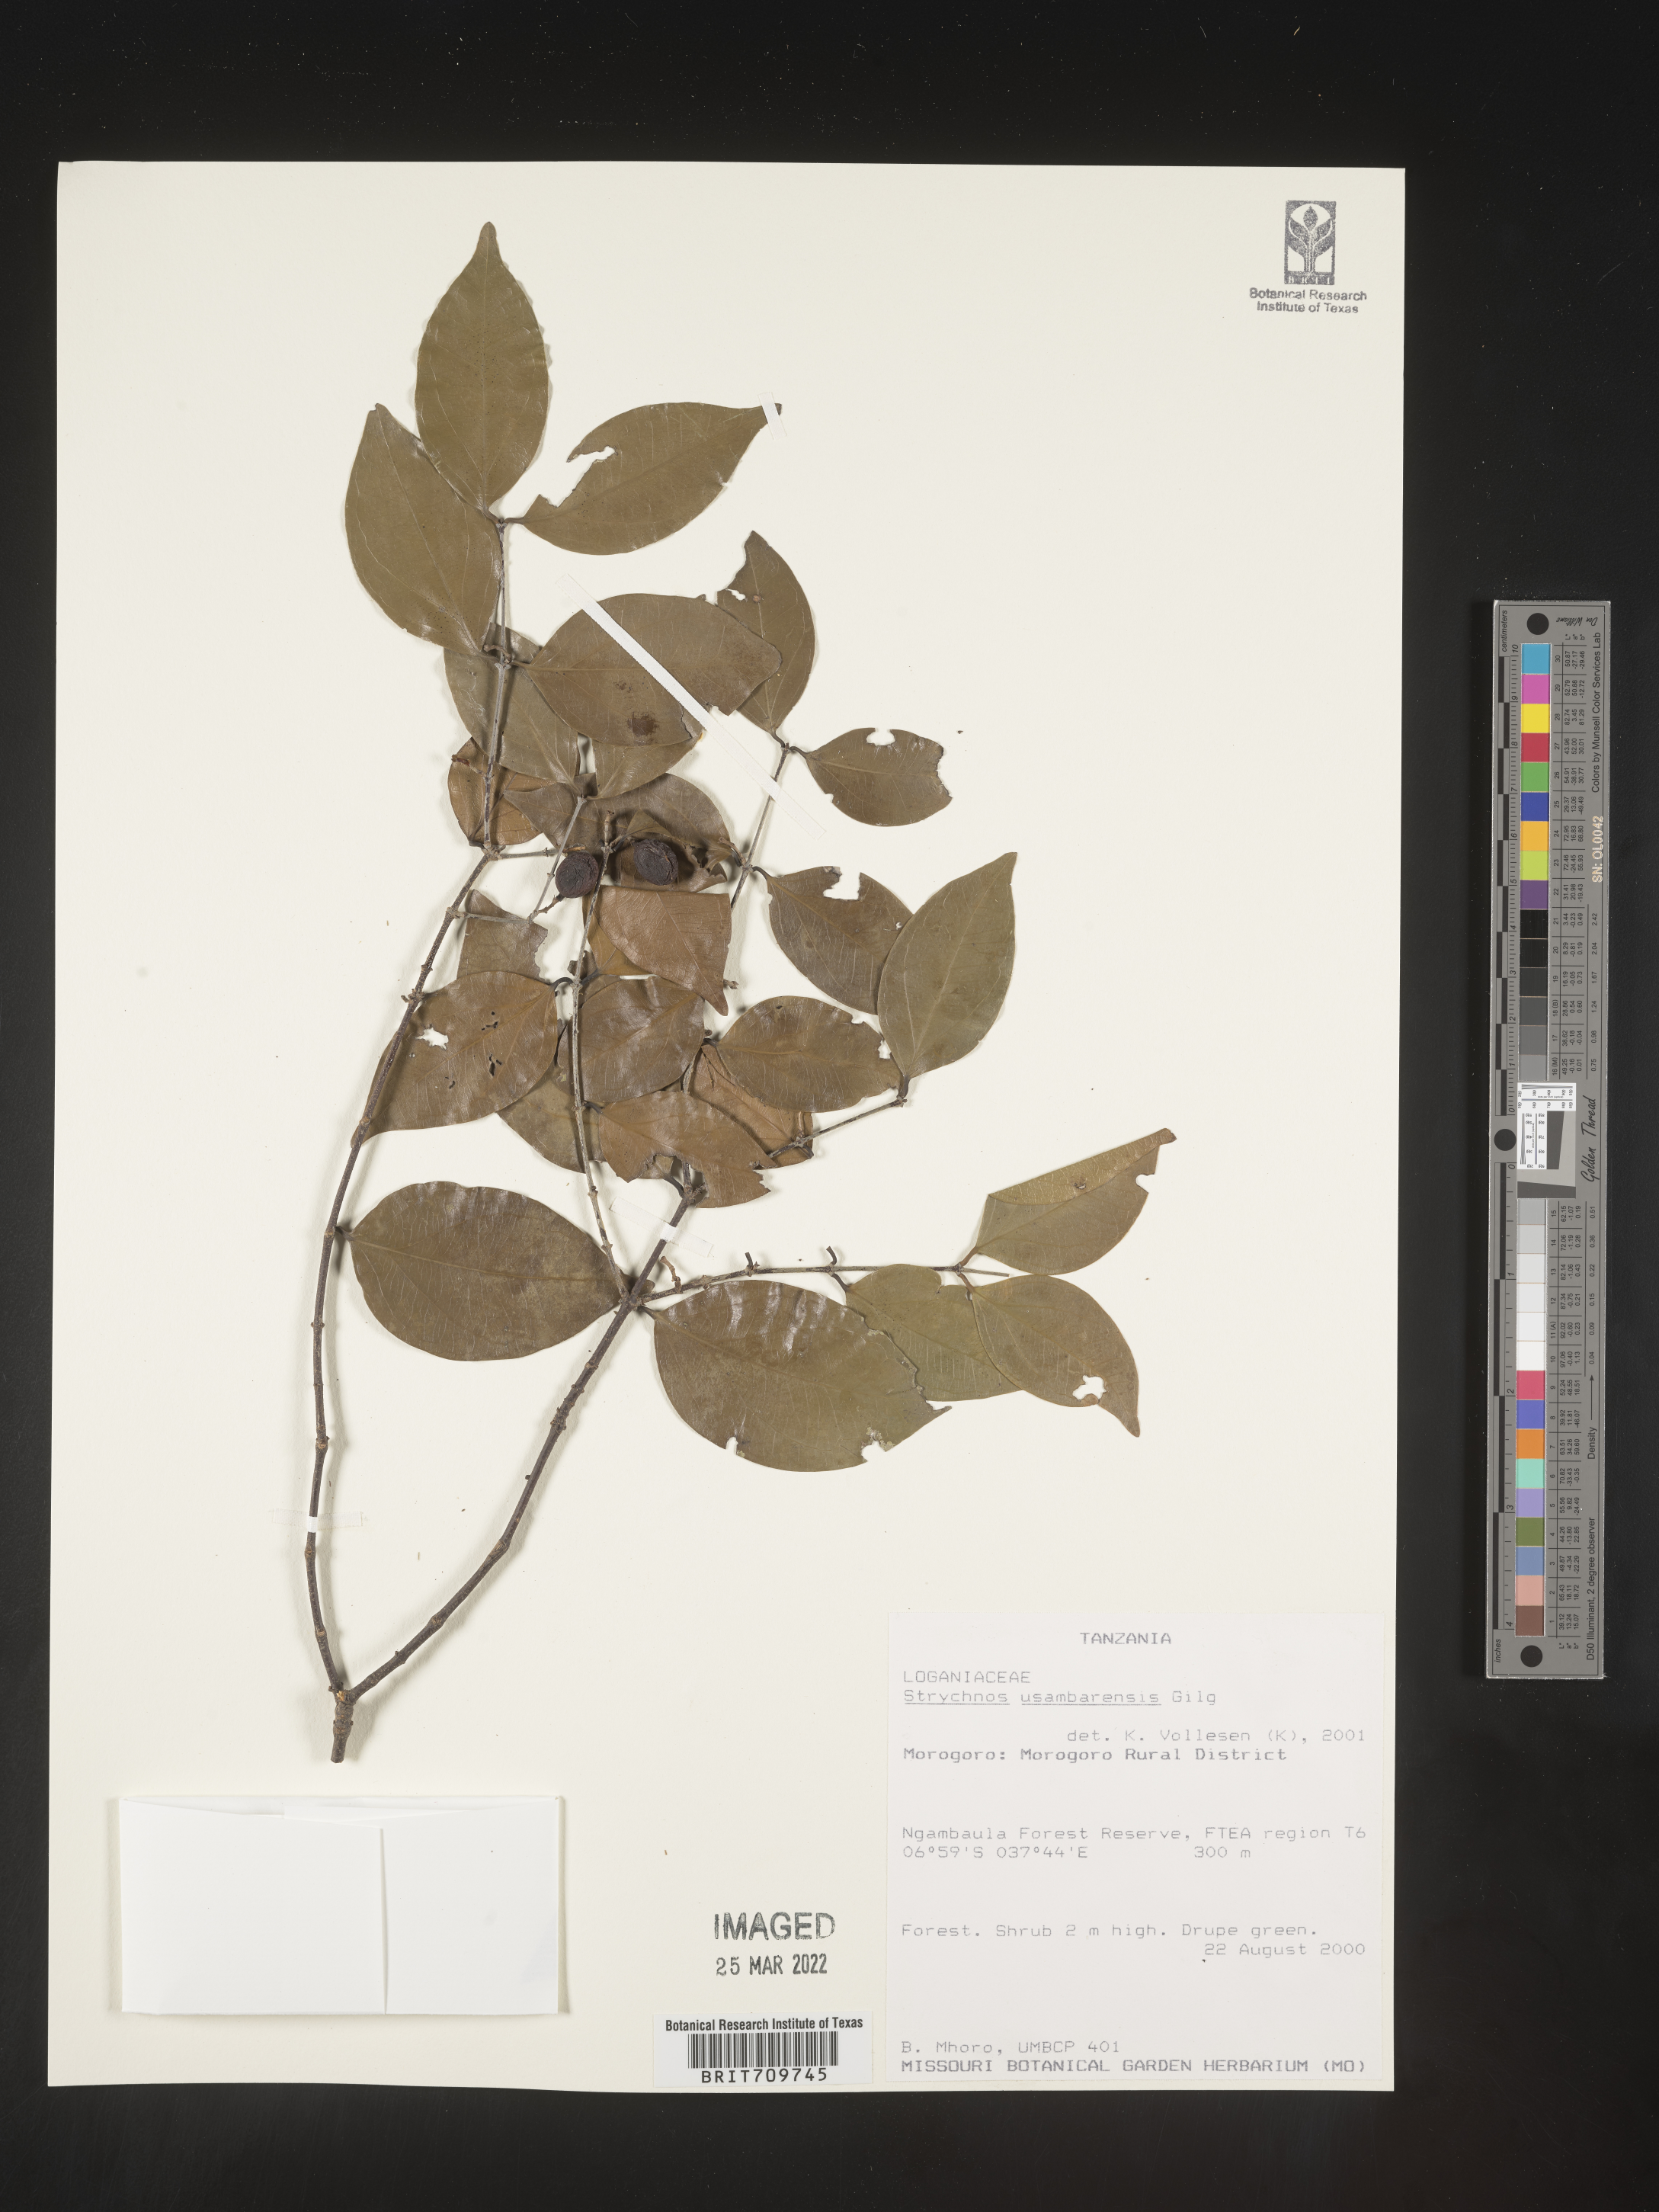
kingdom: Plantae
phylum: Tracheophyta
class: Magnoliopsida
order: Gentianales
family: Loganiaceae
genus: Strychnos
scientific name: Strychnos
